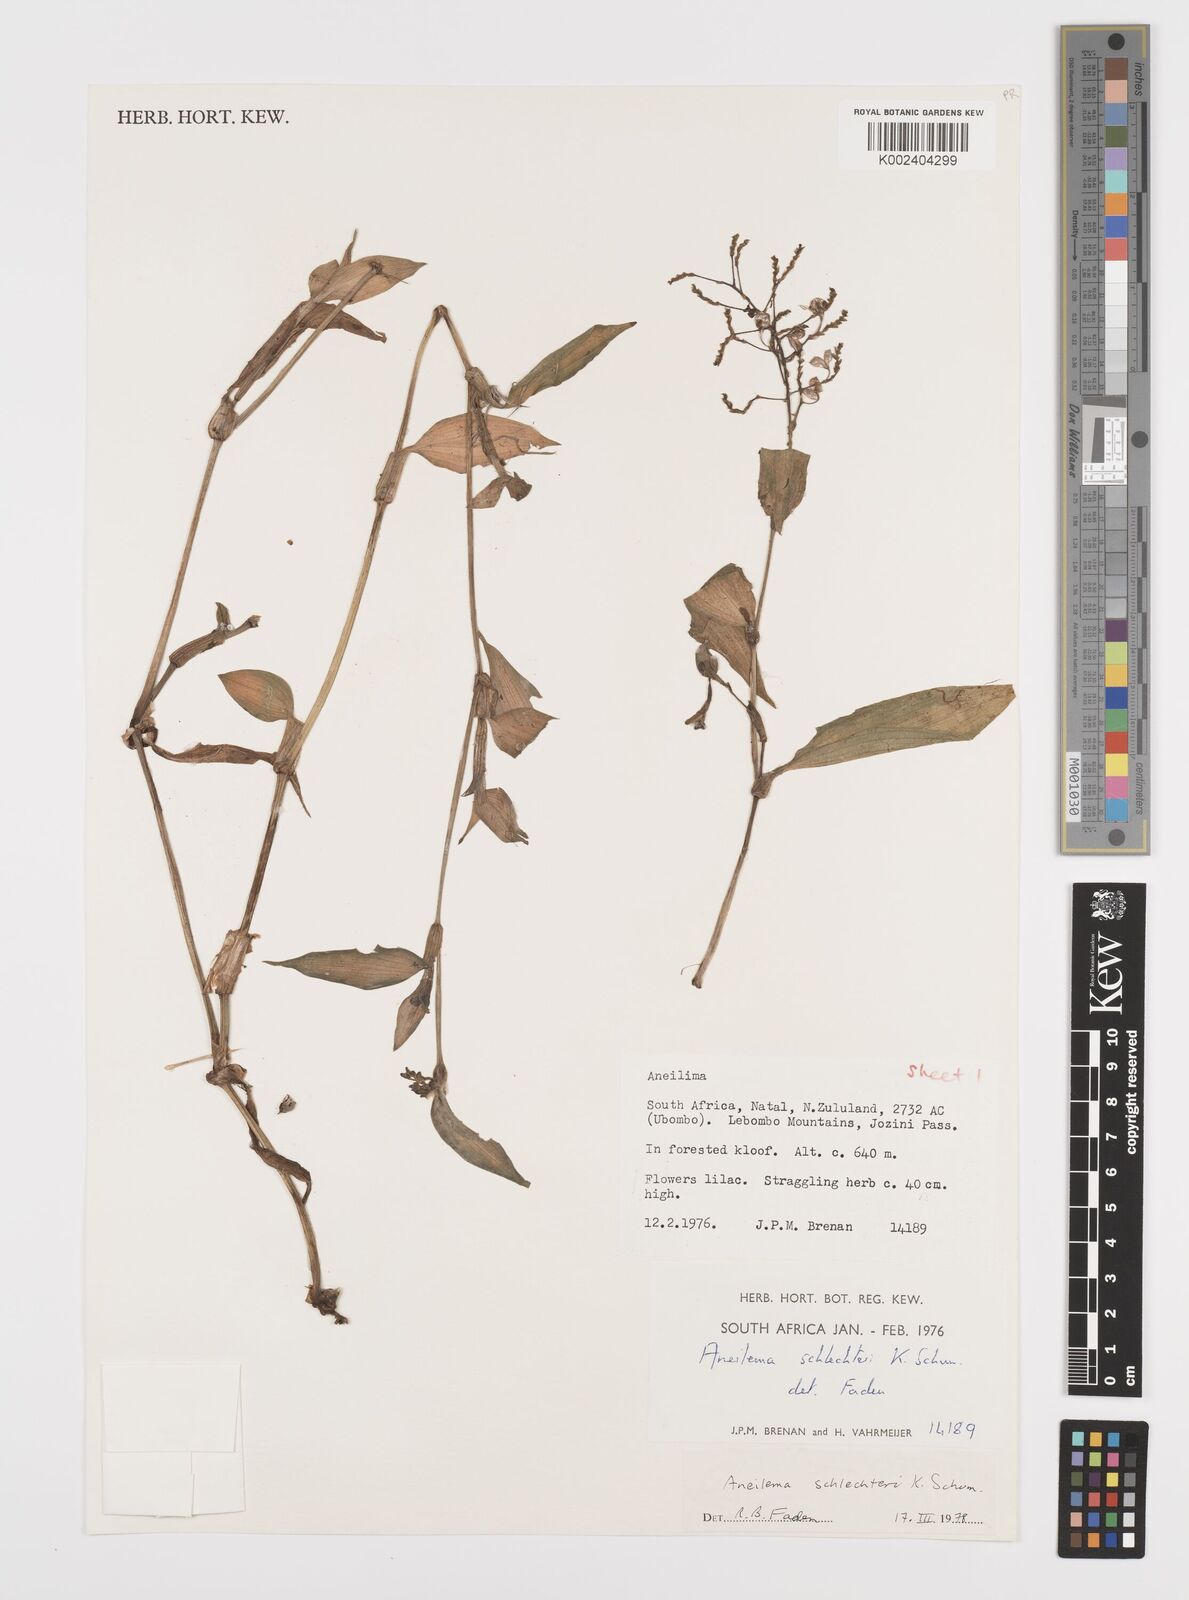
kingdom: Plantae
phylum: Tracheophyta
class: Liliopsida
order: Commelinales
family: Commelinaceae
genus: Aneilema
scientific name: Aneilema schlechteri
